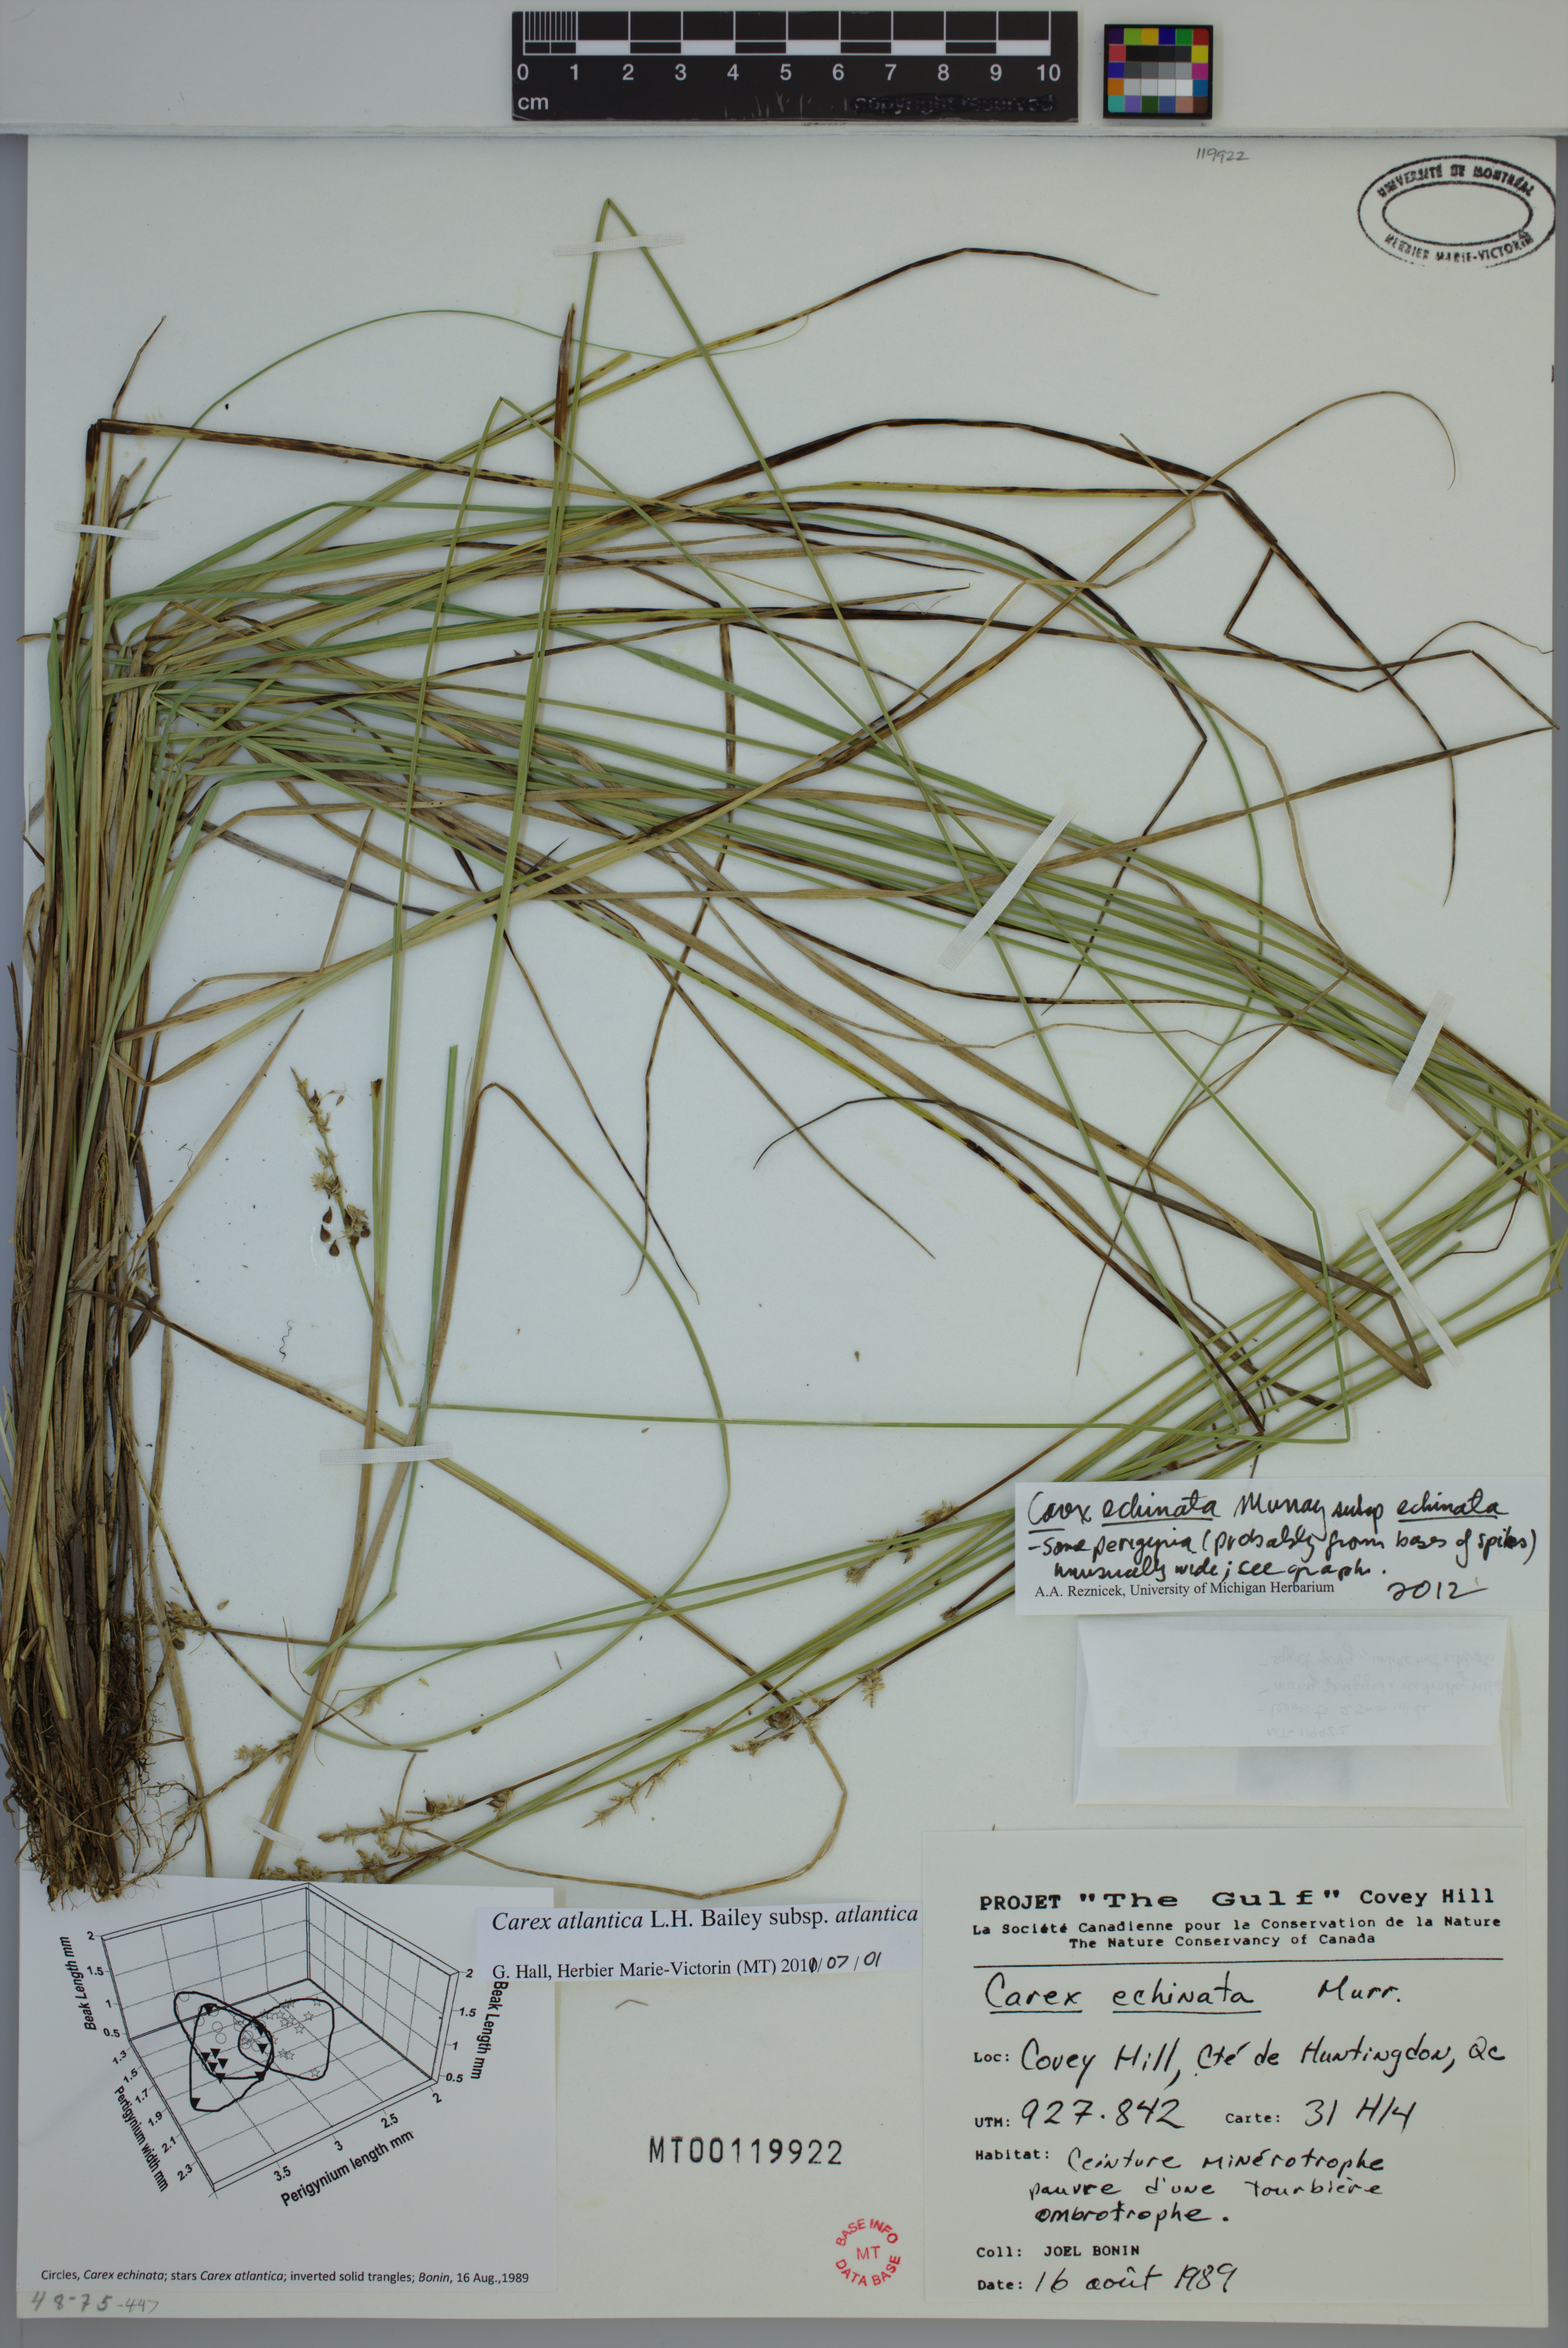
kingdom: Plantae
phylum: Tracheophyta
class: Liliopsida
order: Poales
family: Cyperaceae
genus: Carex
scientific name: Carex echinata
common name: Star sedge
